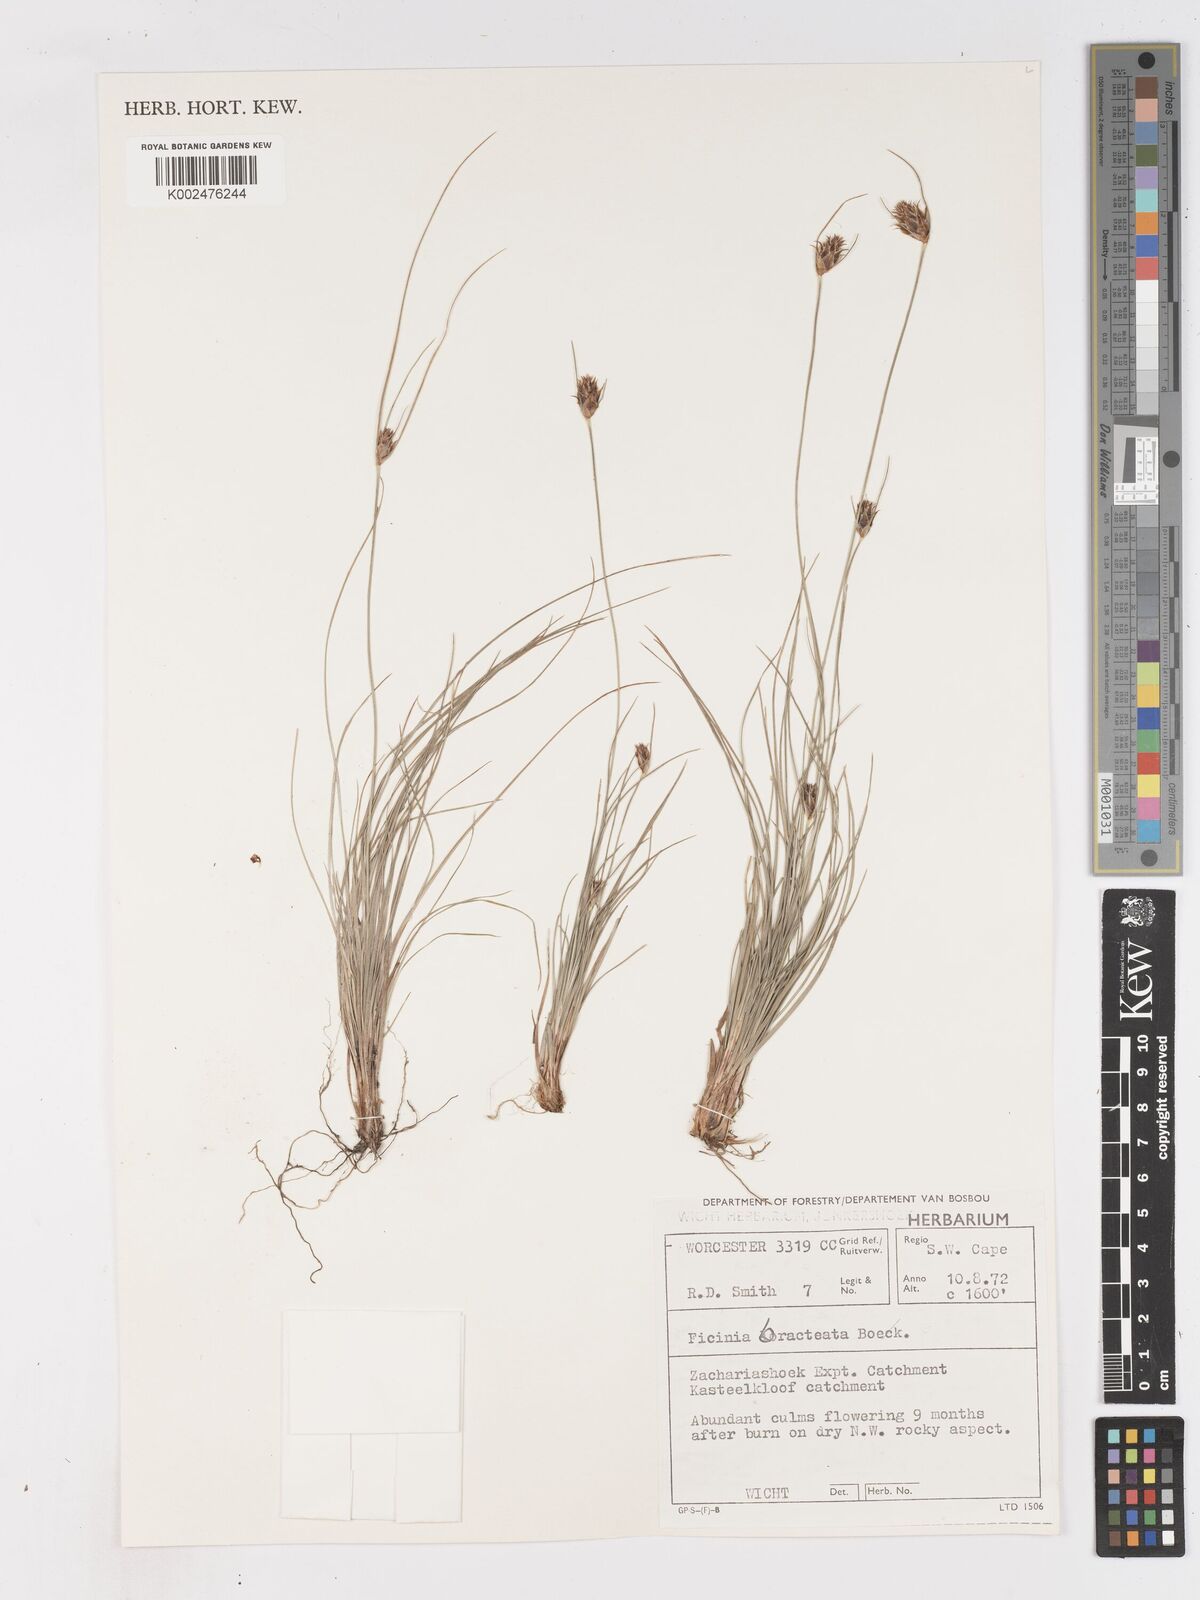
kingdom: Plantae
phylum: Tracheophyta
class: Liliopsida
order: Poales
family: Cyperaceae
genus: Ficinia
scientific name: Ficinia nigrescens
